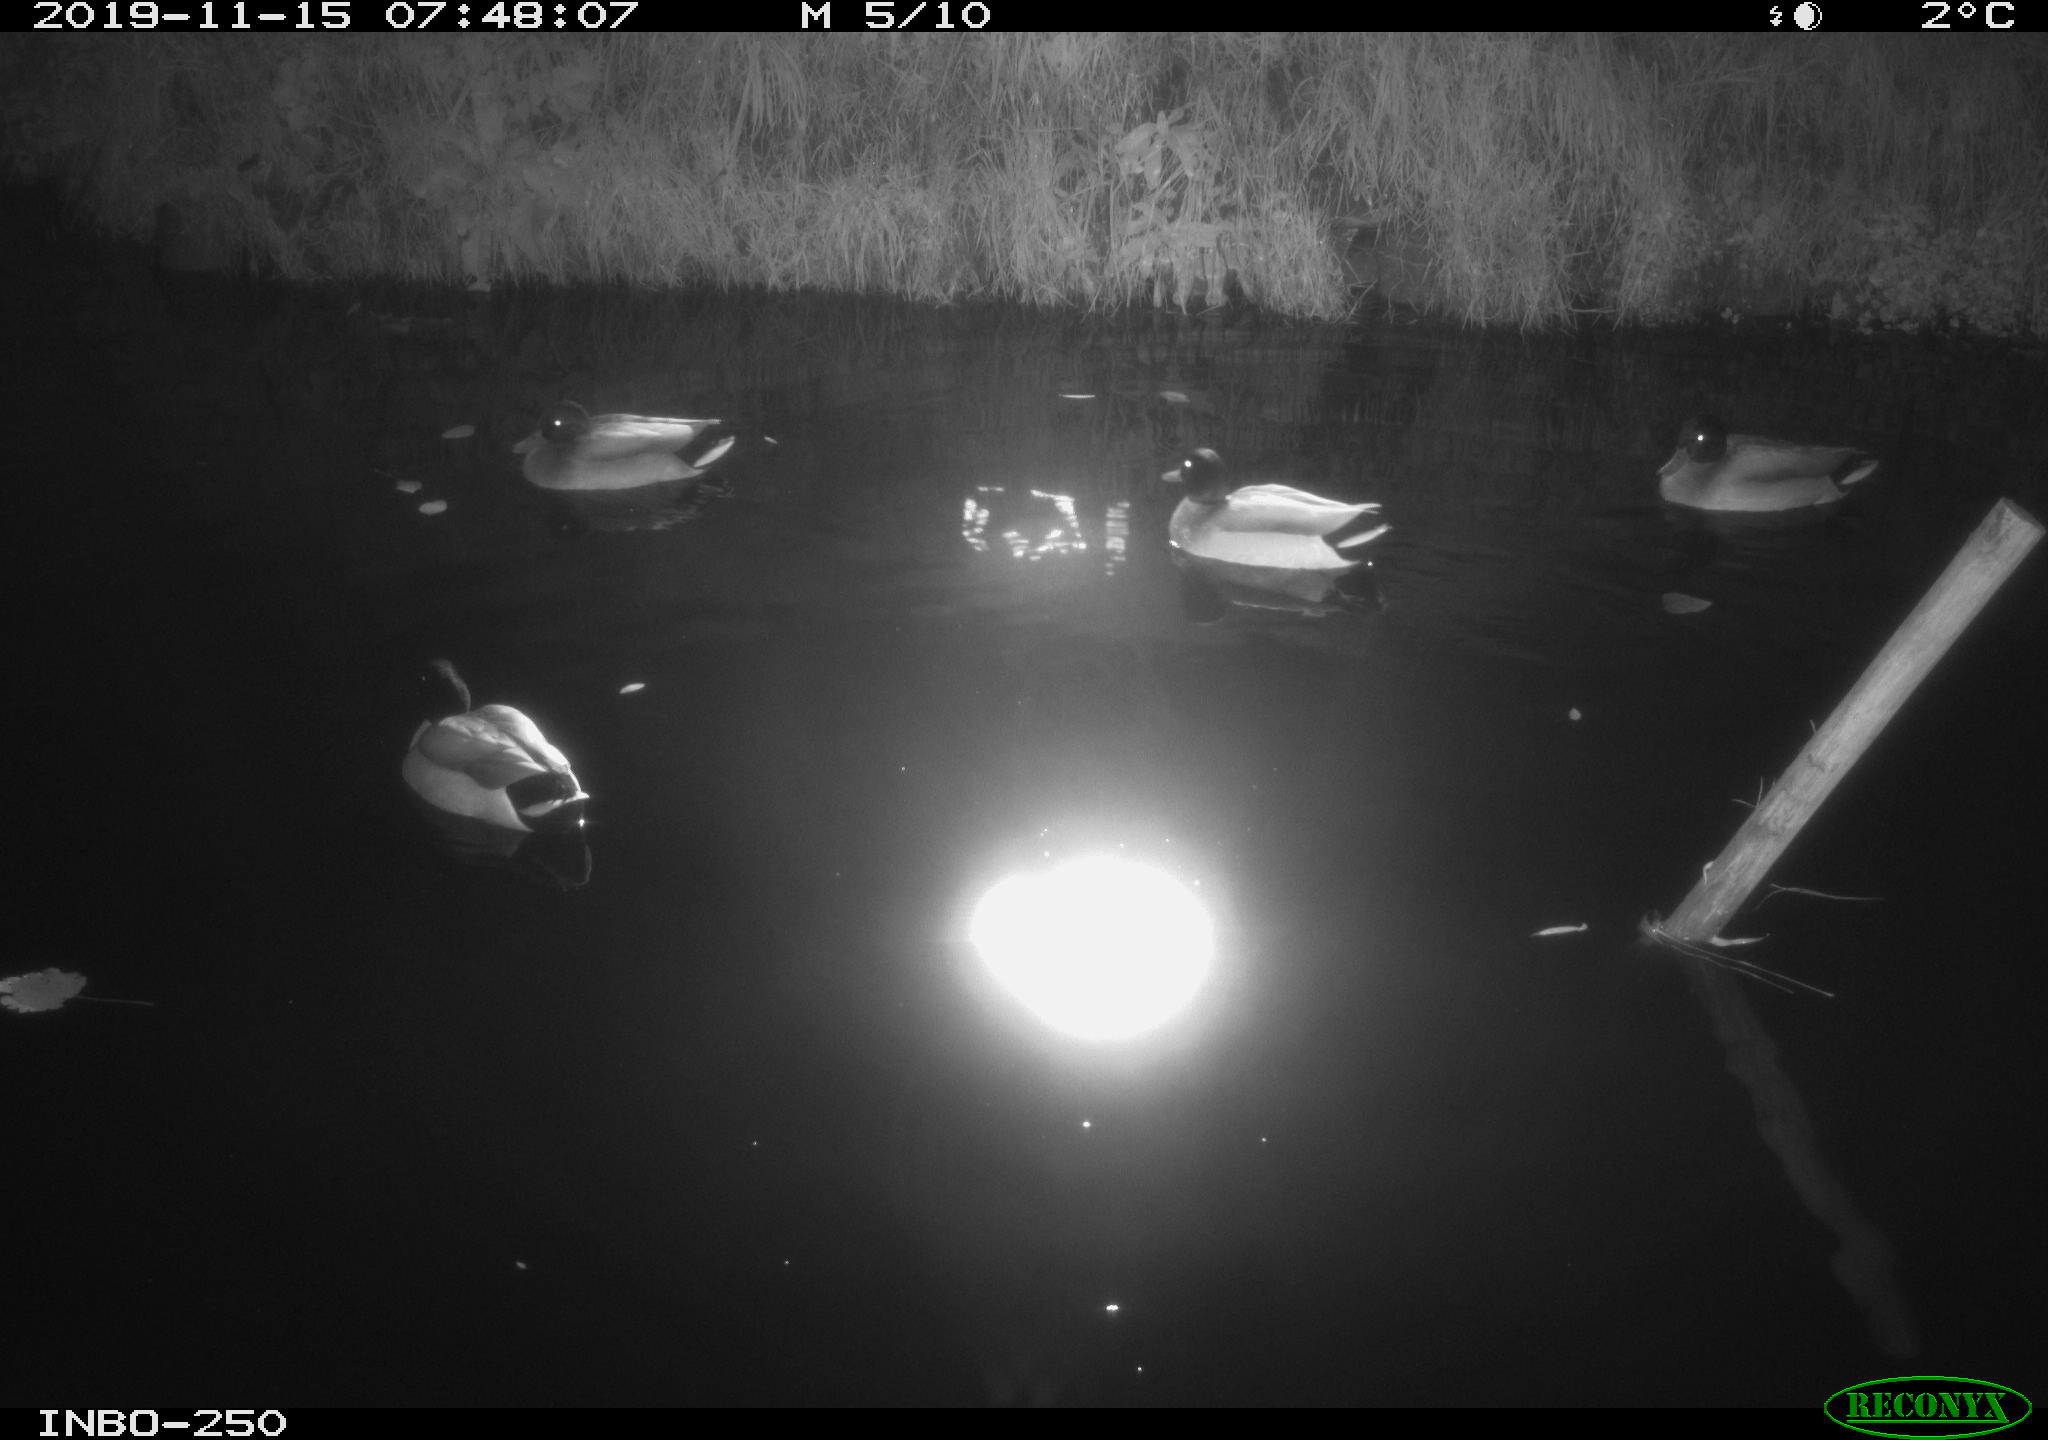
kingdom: Animalia
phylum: Chordata
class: Aves
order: Anseriformes
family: Anatidae
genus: Anas
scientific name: Anas platyrhynchos
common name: Mallard
